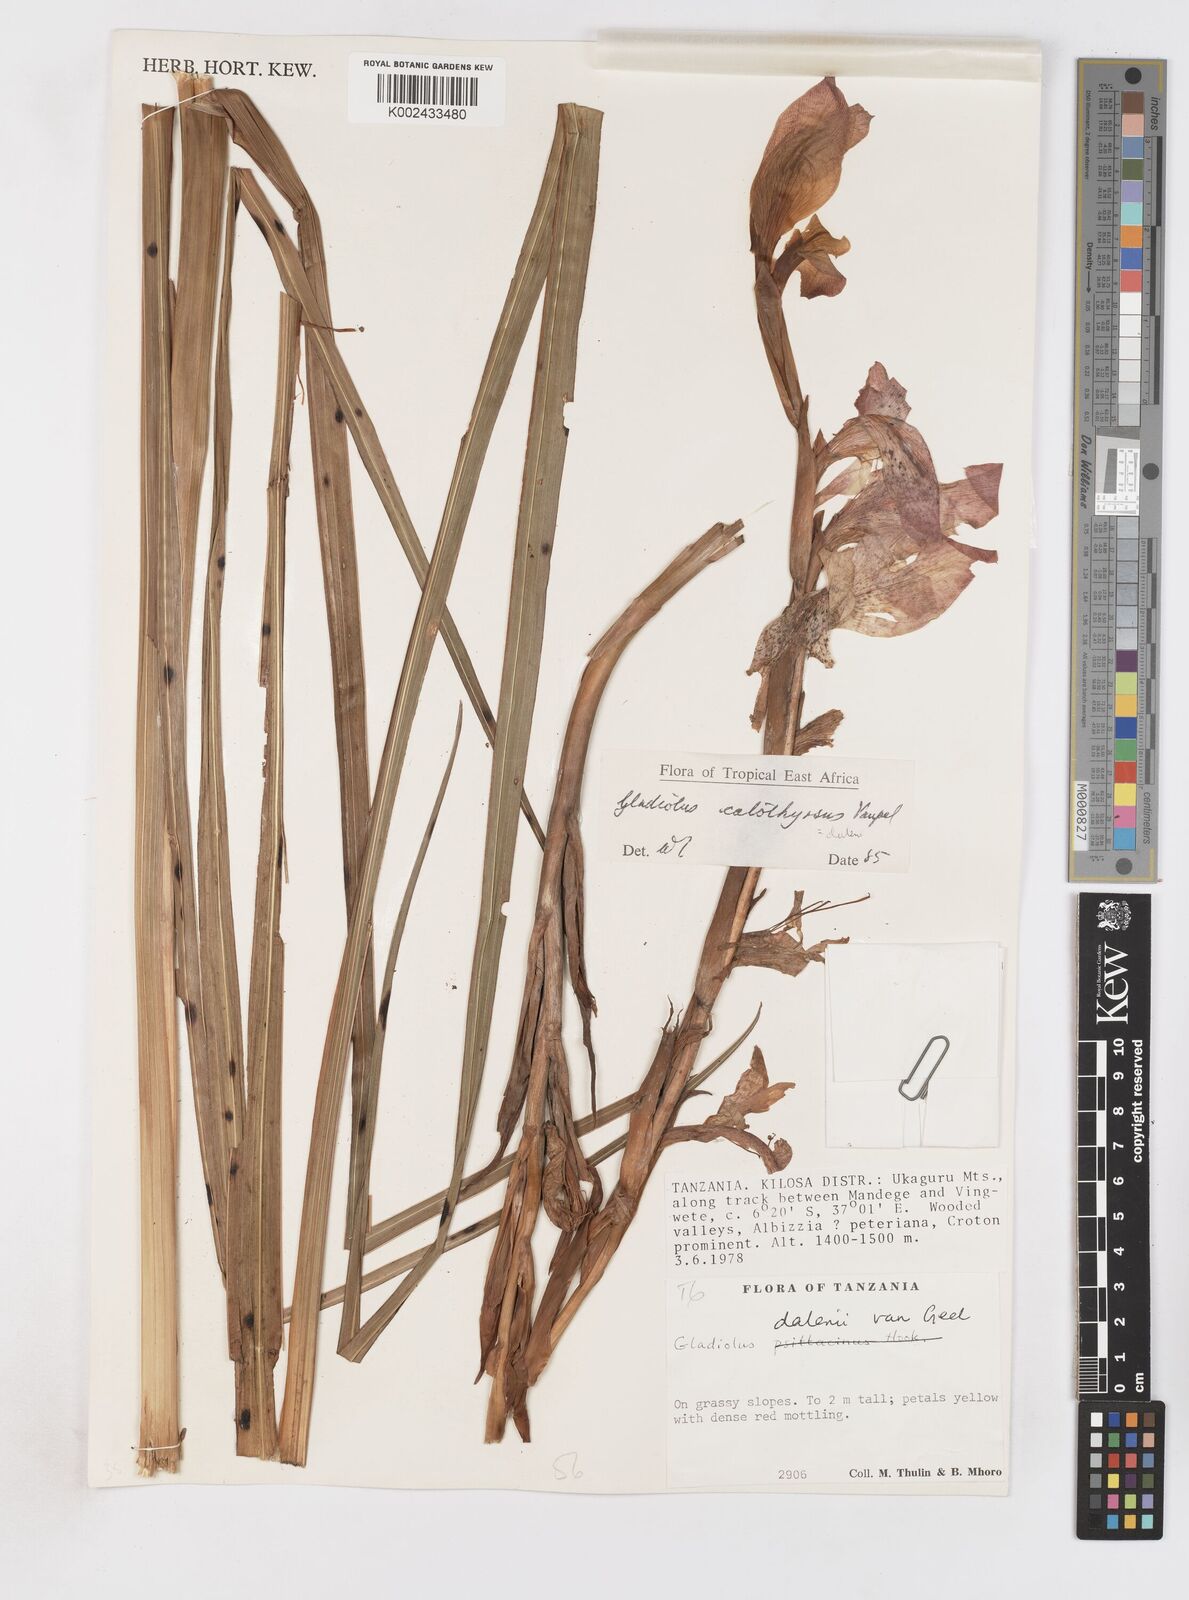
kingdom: Plantae
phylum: Tracheophyta
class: Liliopsida
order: Asparagales
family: Iridaceae
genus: Gladiolus
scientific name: Gladiolus dalenii
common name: Cornflag
